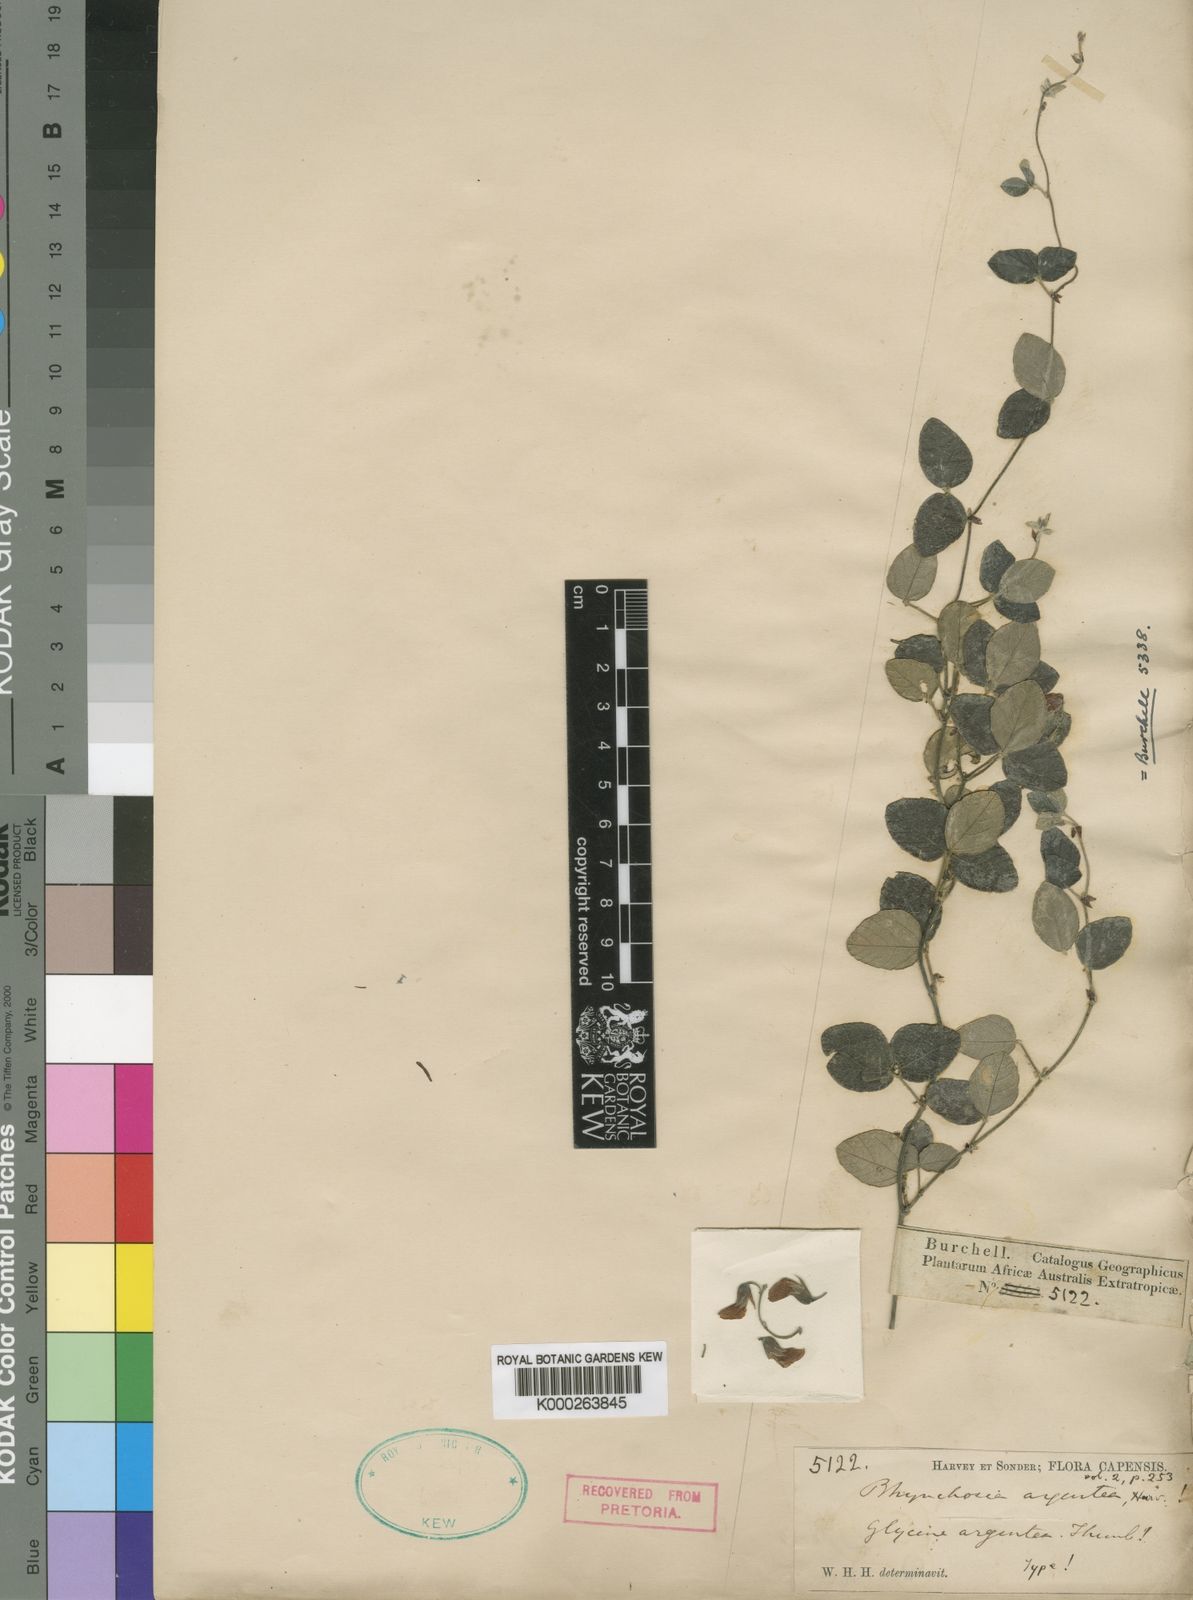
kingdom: Plantae
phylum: Tracheophyta
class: Magnoliopsida
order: Fabales
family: Fabaceae
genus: Rhynchosia
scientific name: Rhynchosia argentea
